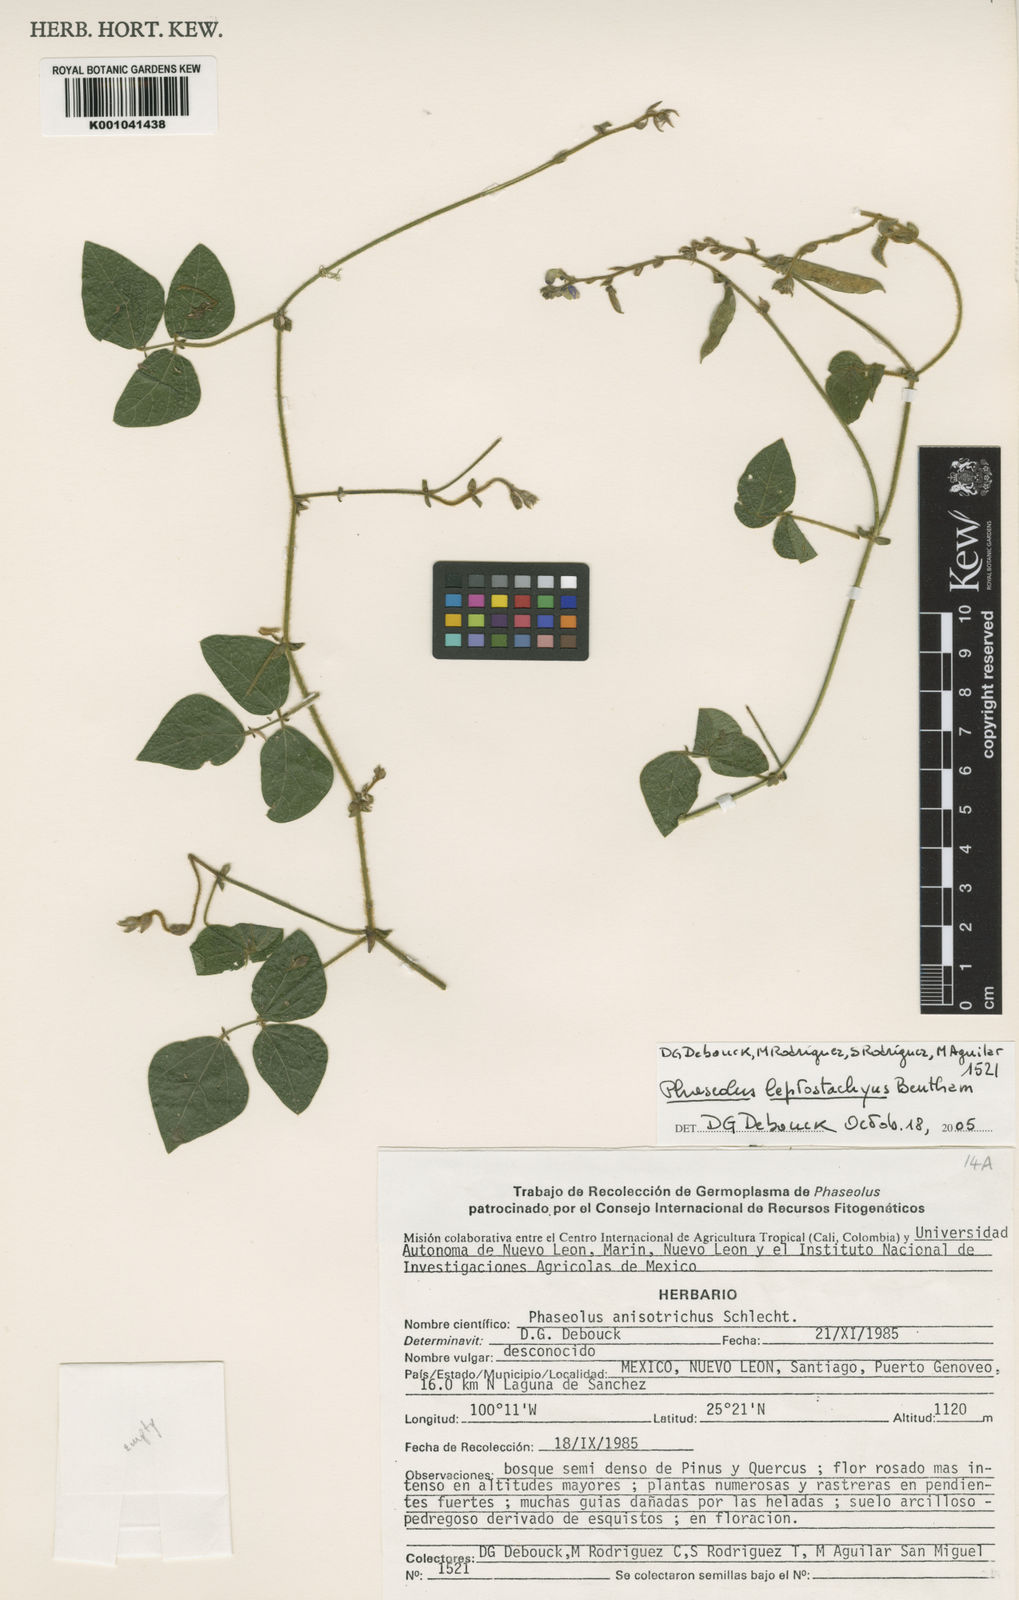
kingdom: Plantae
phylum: Tracheophyta
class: Magnoliopsida
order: Fabales
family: Fabaceae
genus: Phaseolus
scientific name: Phaseolus
